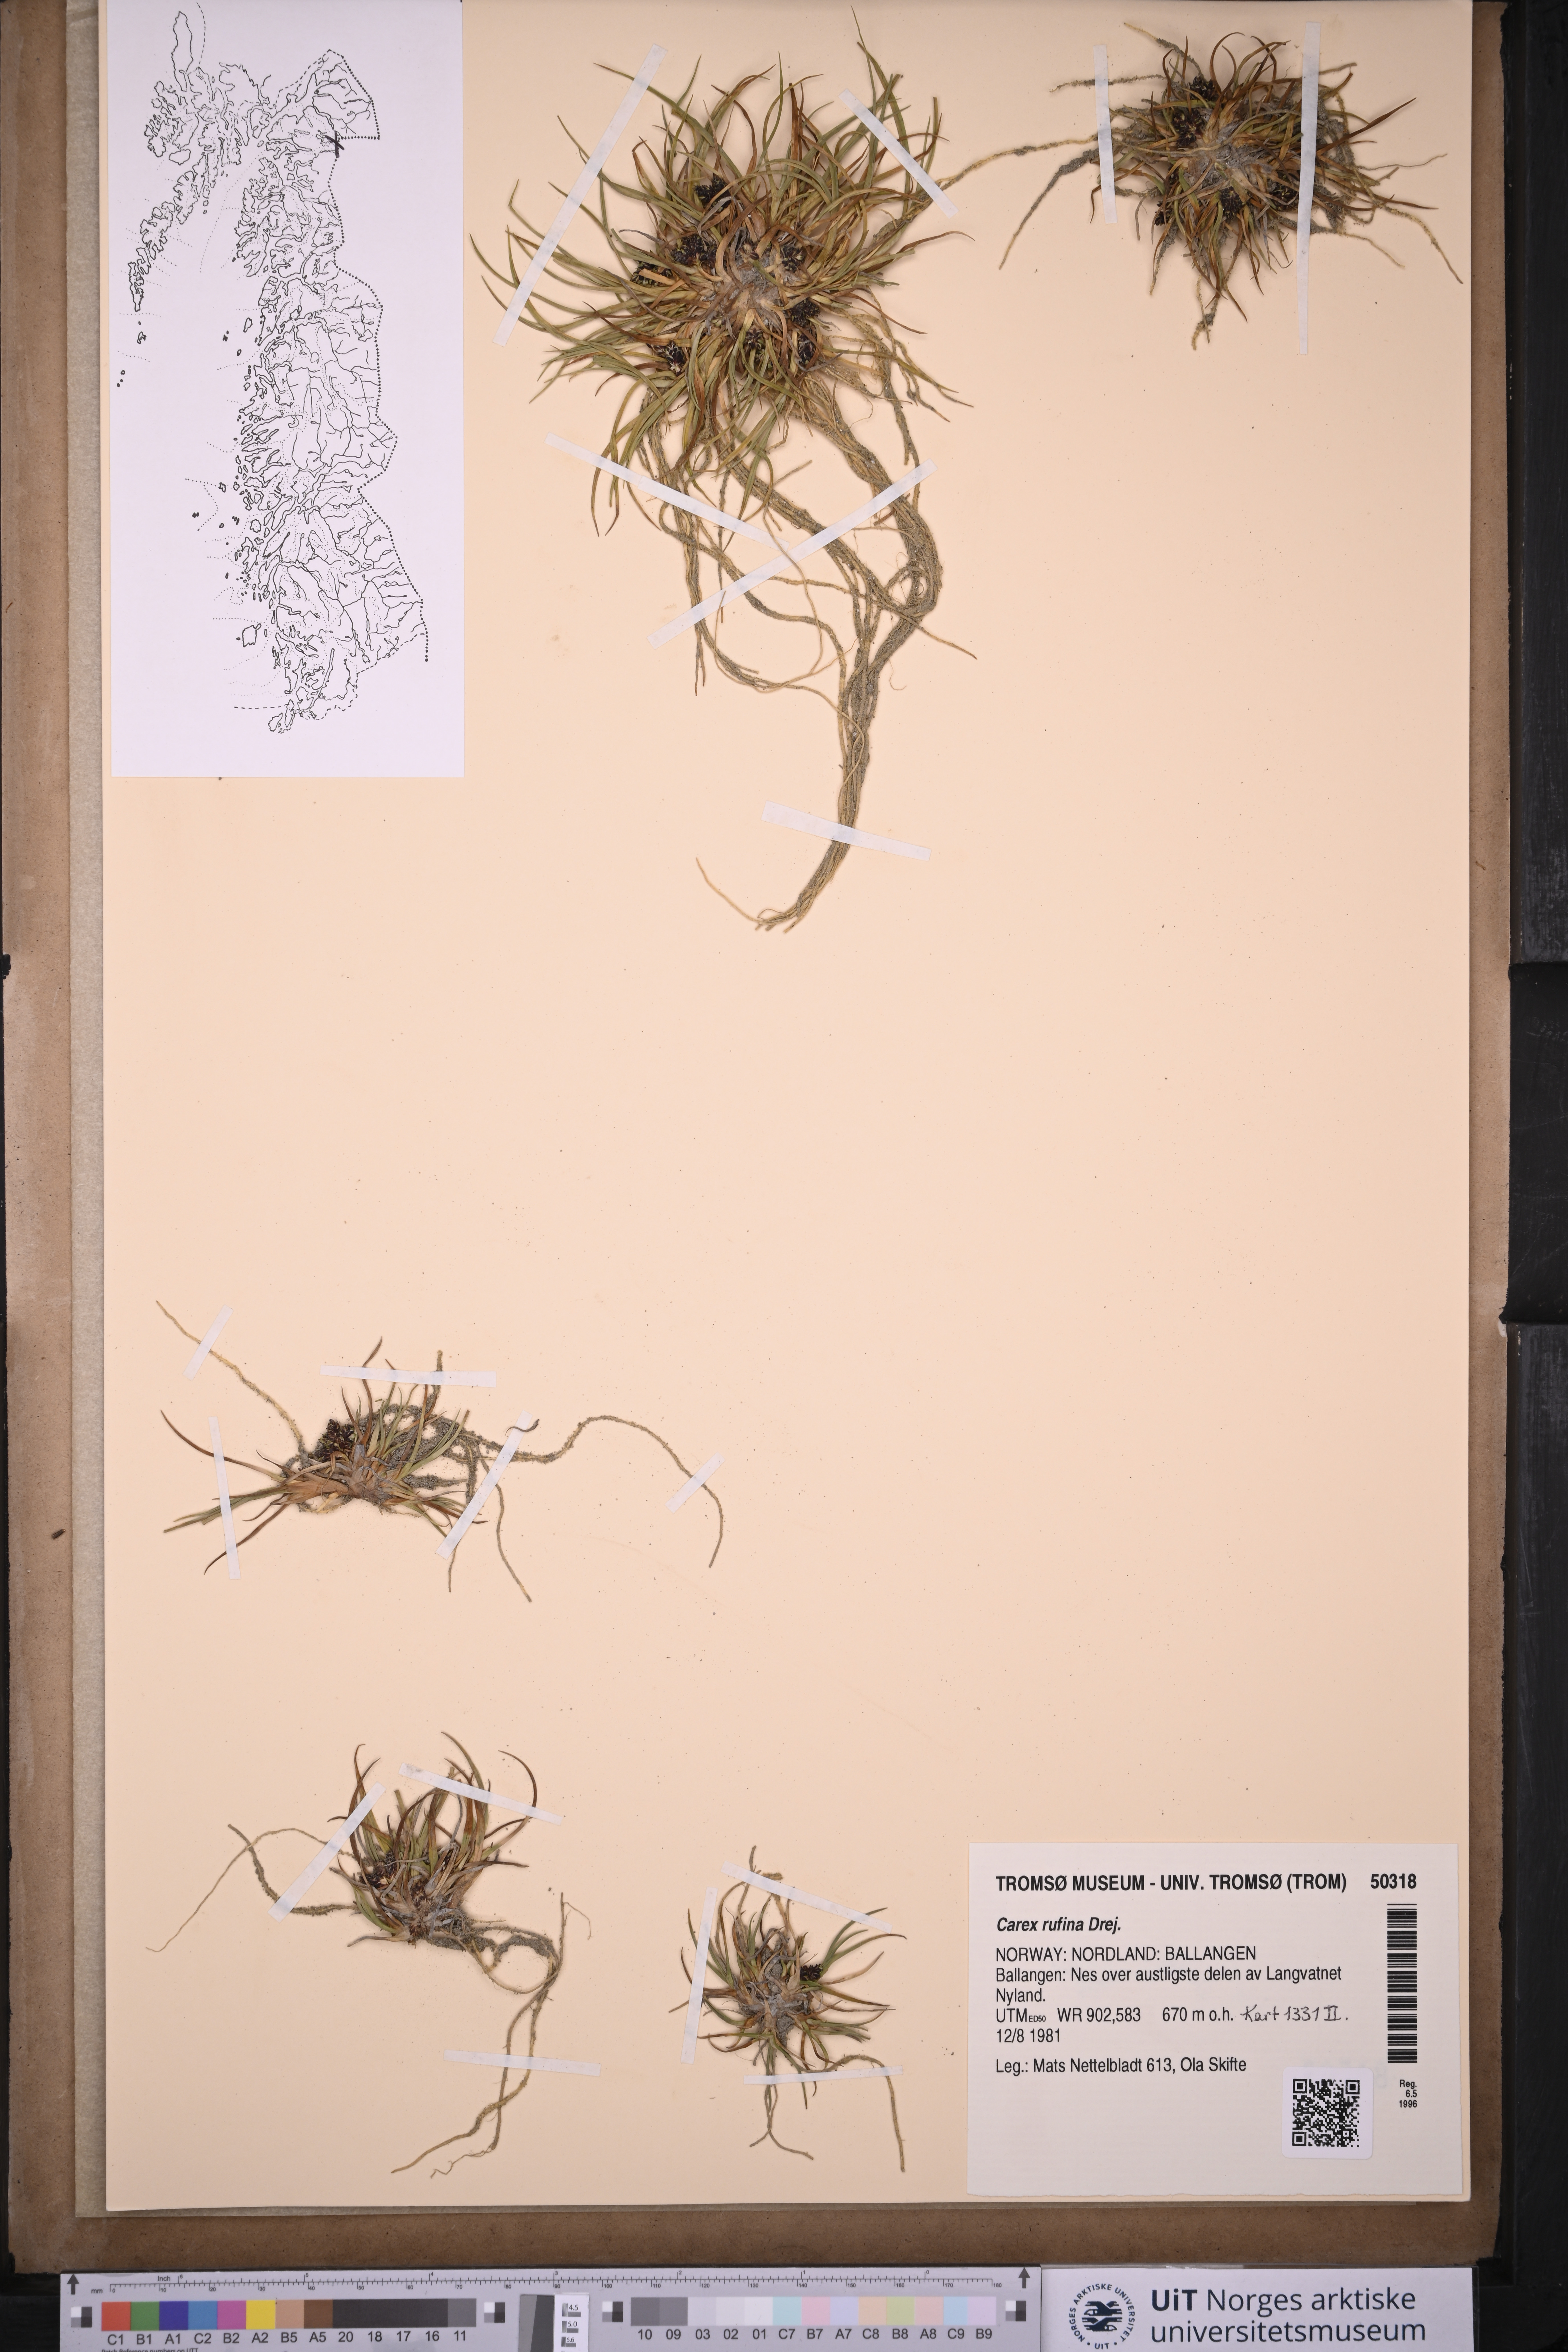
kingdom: Plantae
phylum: Tracheophyta
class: Liliopsida
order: Poales
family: Cyperaceae
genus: Carex
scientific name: Carex rufina
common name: Reddish sedge
